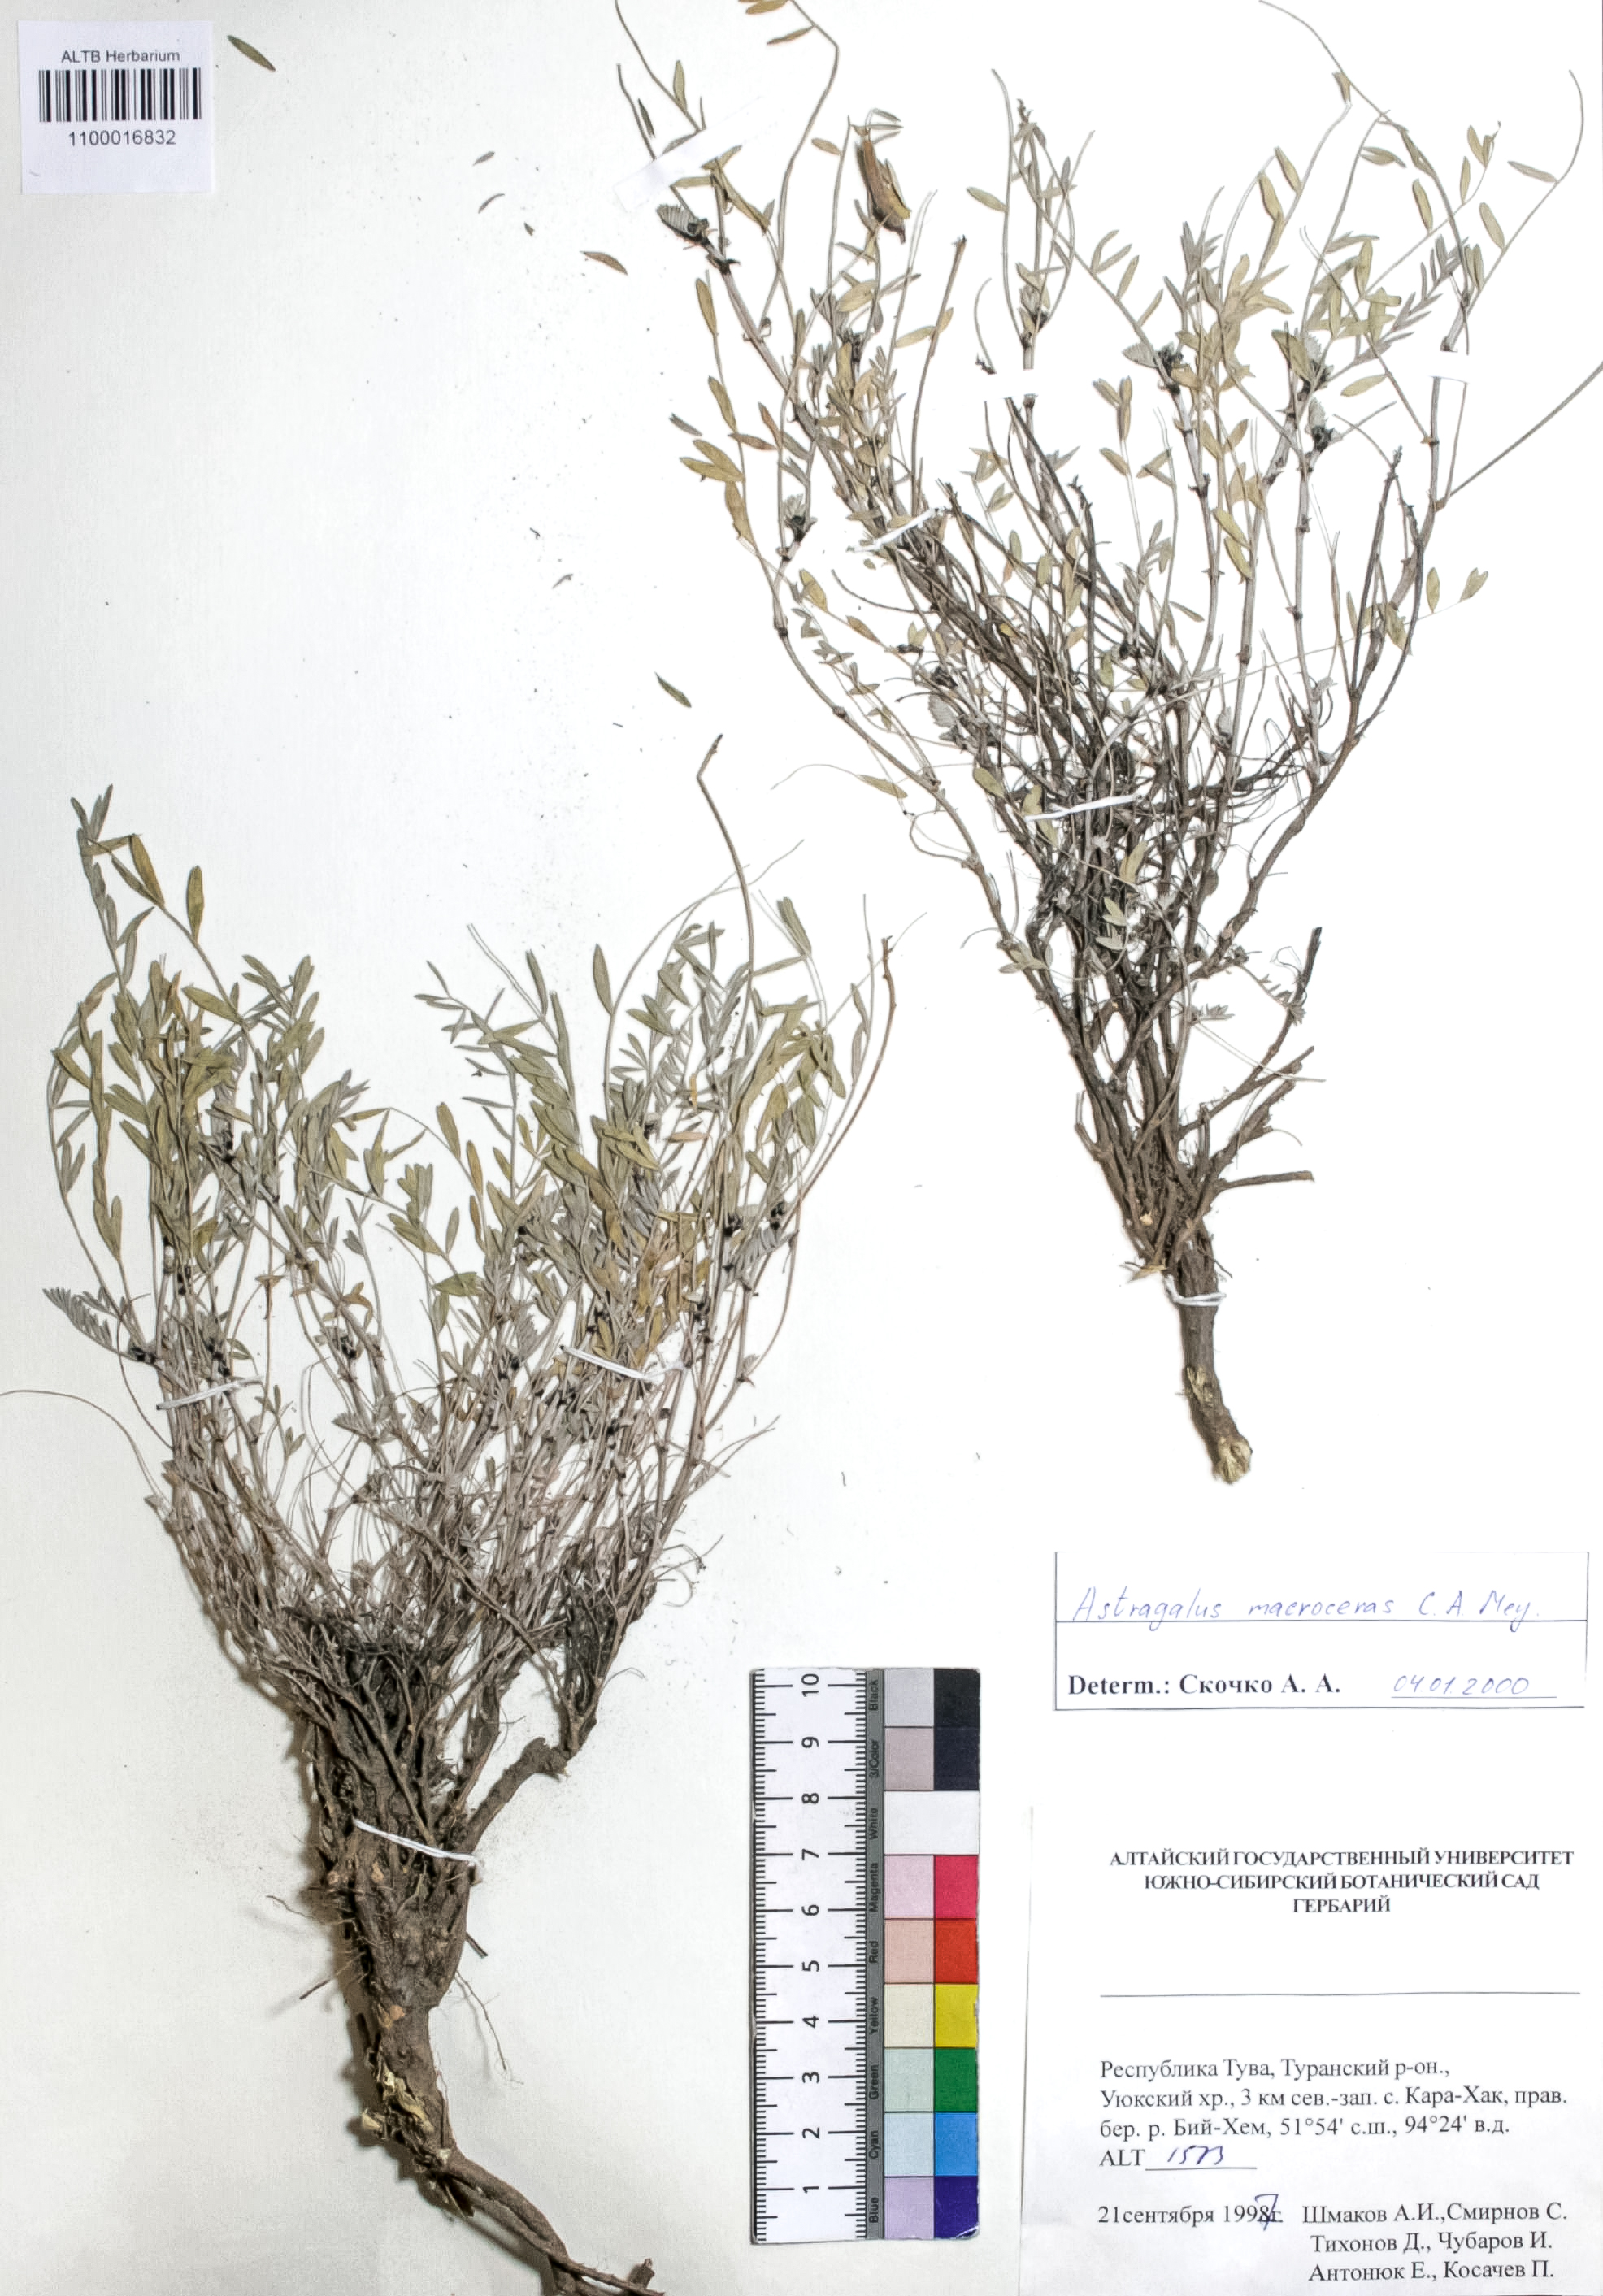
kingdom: Plantae
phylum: Tracheophyta
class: Magnoliopsida
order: Fabales
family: Fabaceae
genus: Astragalus
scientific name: Astragalus macroceras
